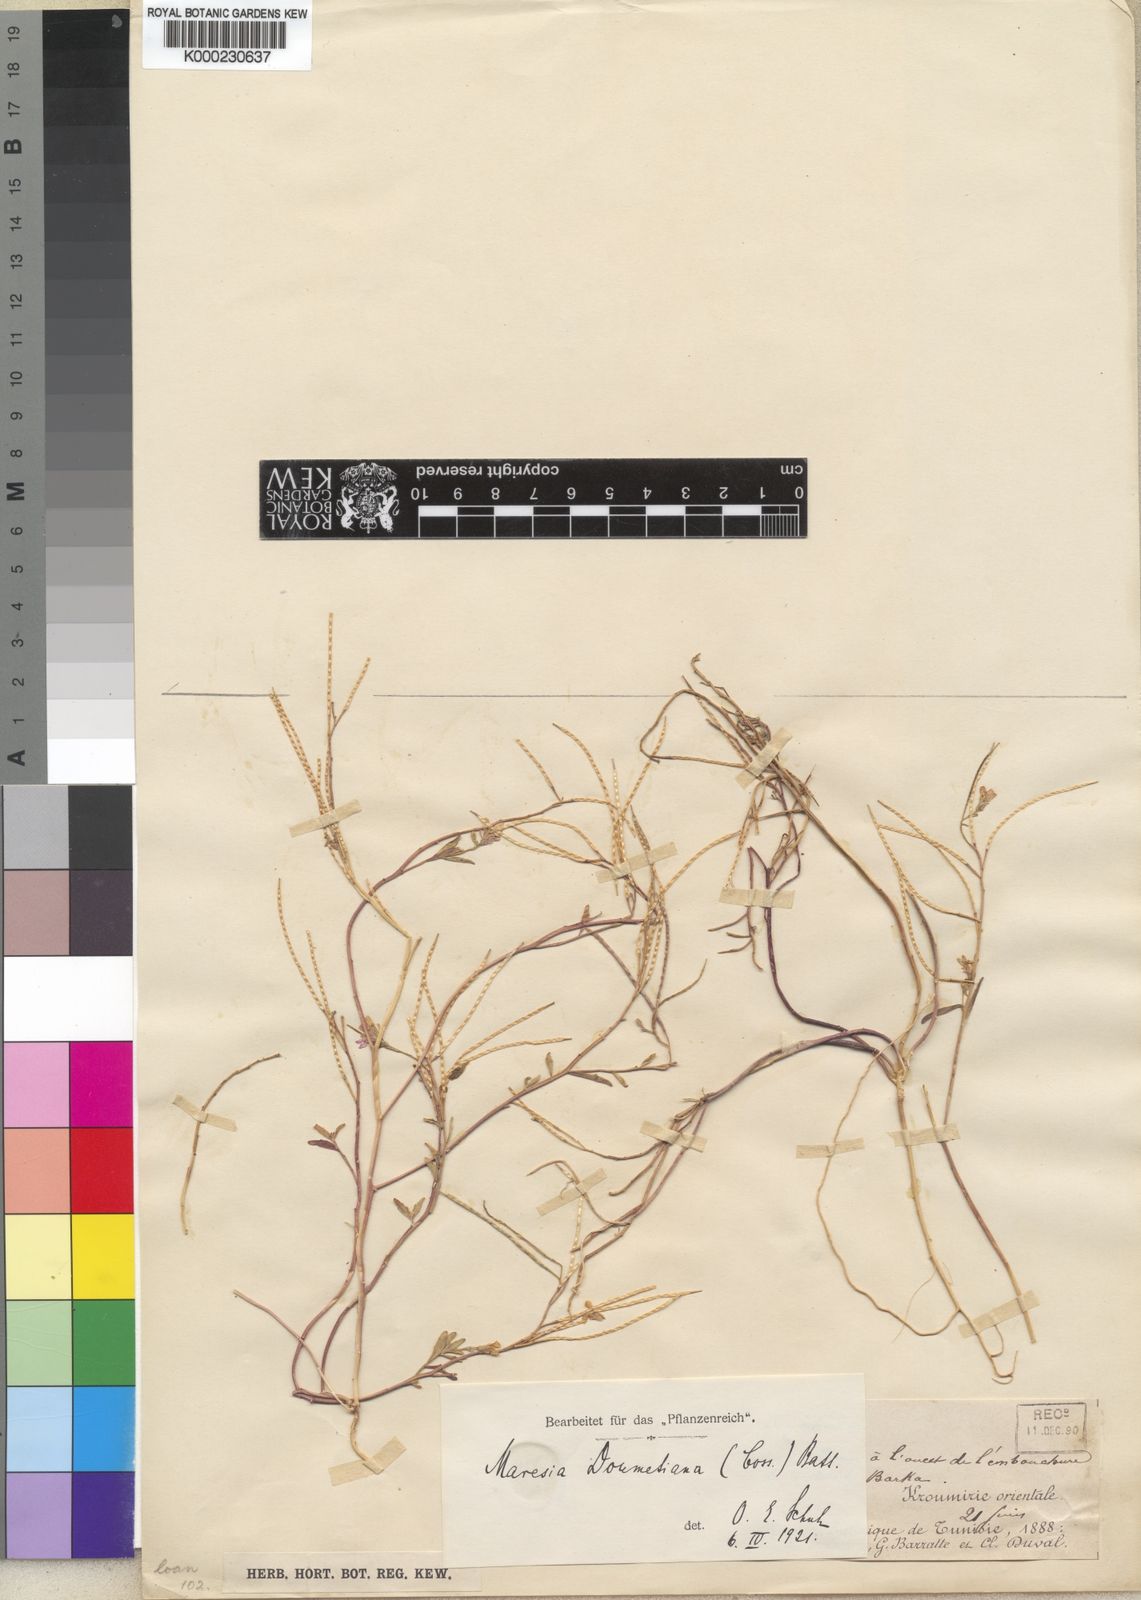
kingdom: Plantae
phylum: Tracheophyta
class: Magnoliopsida
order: Brassicales
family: Brassicaceae
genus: Maresia
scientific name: Maresia doumetiana
